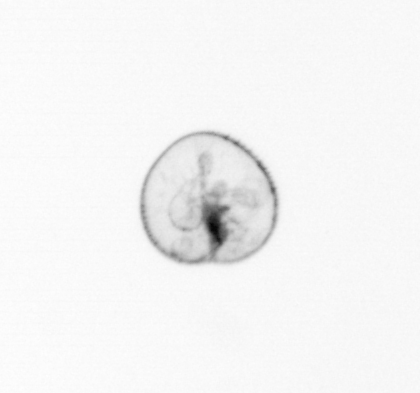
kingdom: Chromista
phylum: Myzozoa
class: Dinophyceae
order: Noctilucales
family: Noctilucaceae
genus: Noctiluca
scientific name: Noctiluca scintillans
